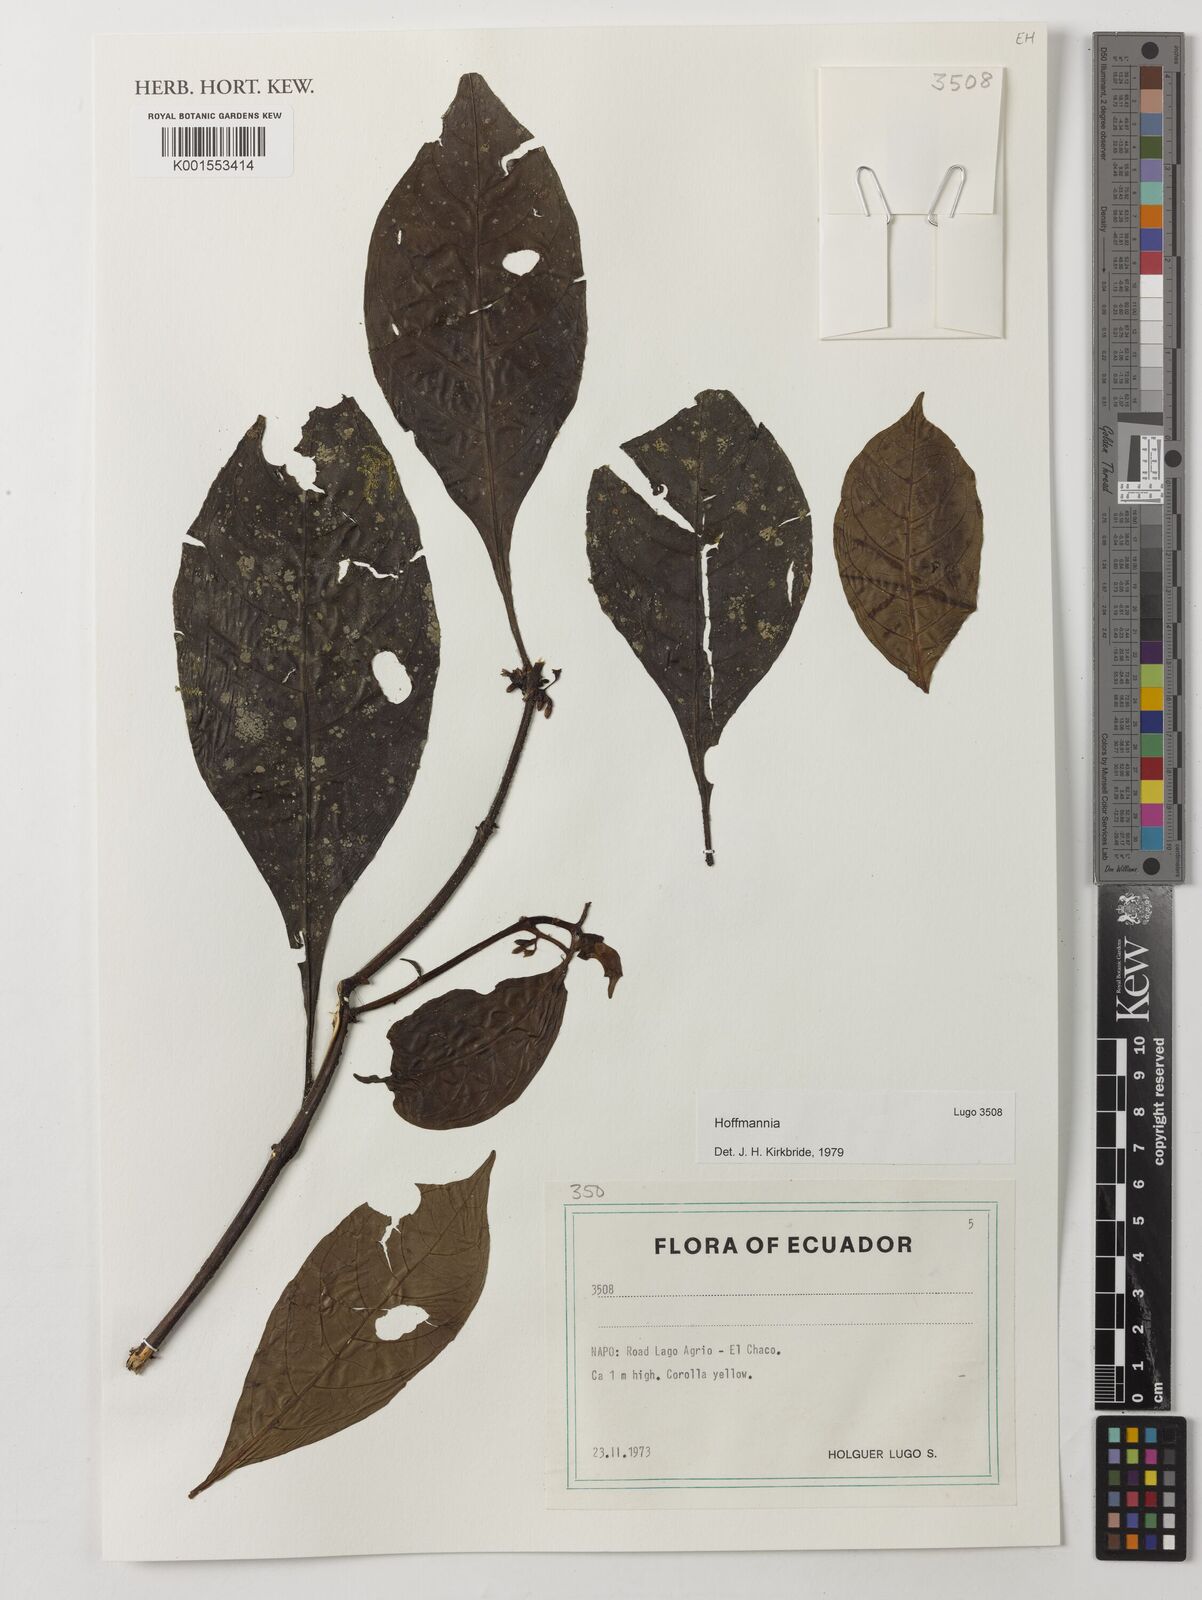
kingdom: Plantae
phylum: Tracheophyta
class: Magnoliopsida
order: Gentianales
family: Rubiaceae
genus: Hoffmannia
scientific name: Hoffmannia
